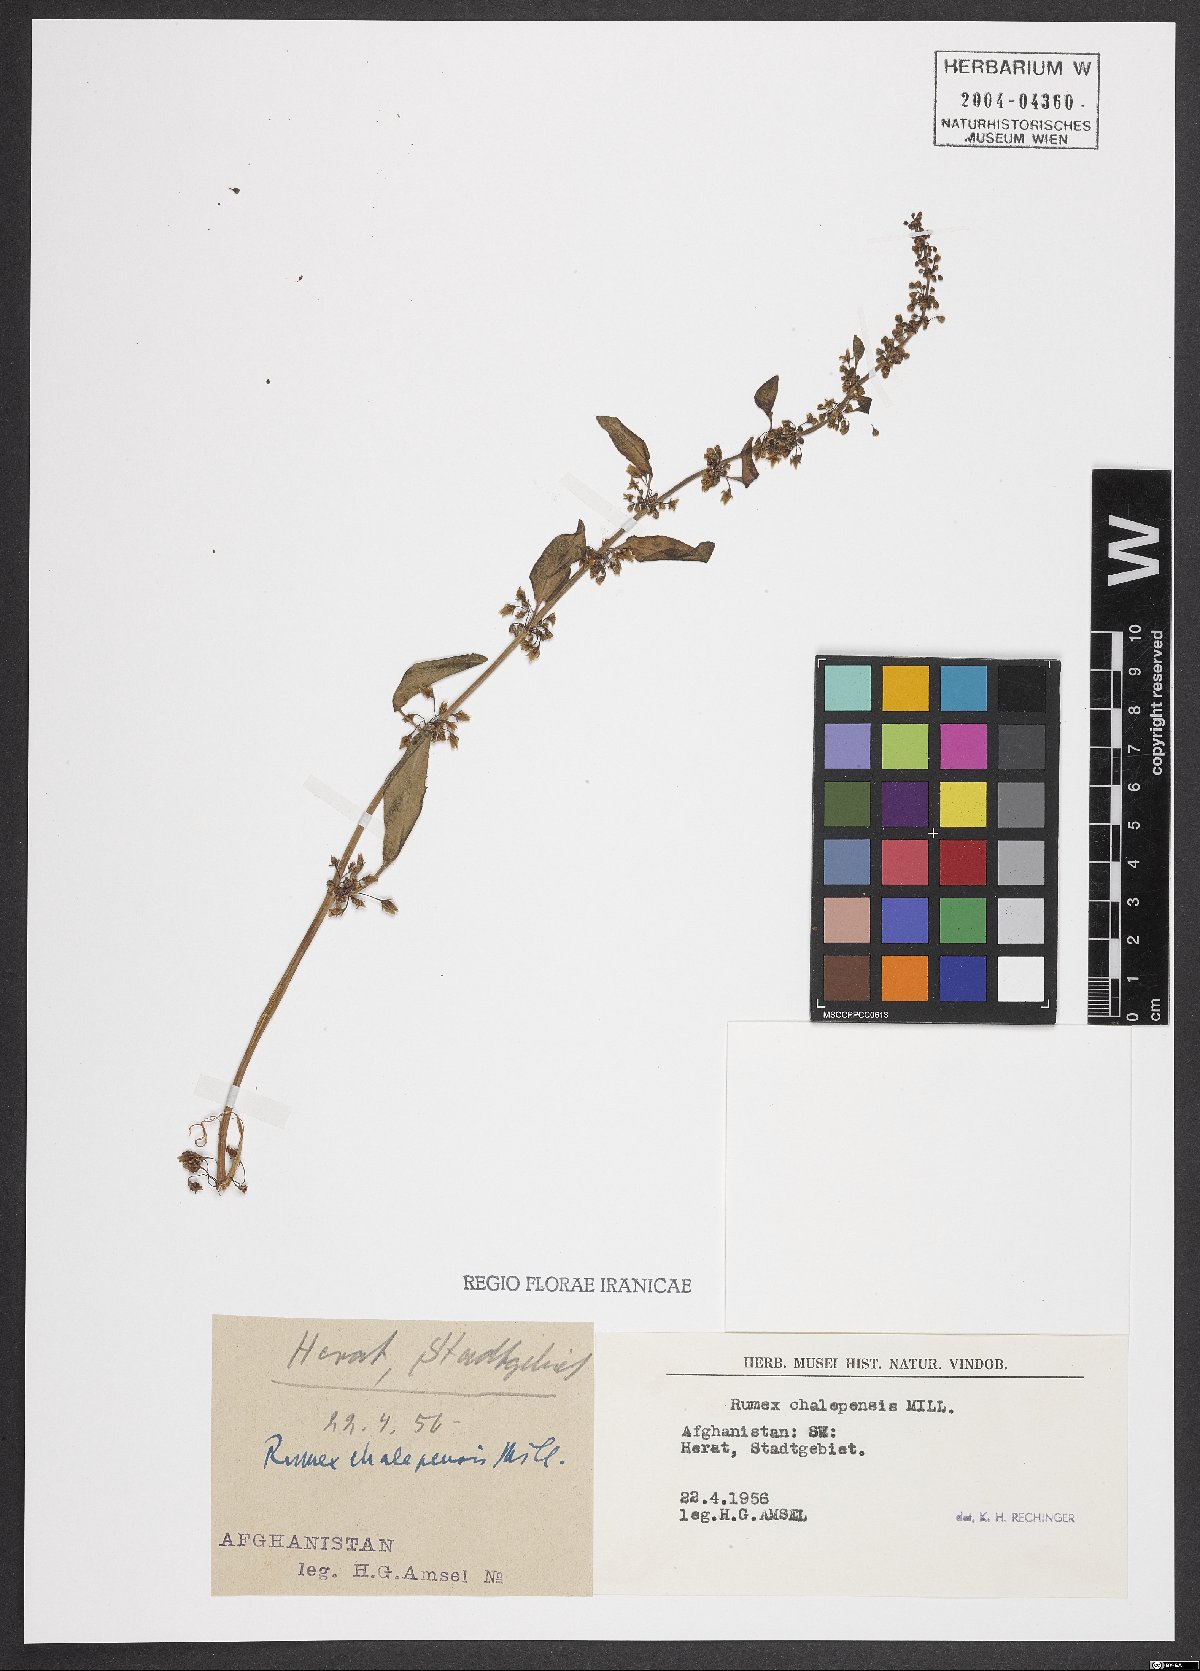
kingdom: Plantae
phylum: Tracheophyta
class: Magnoliopsida
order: Caryophyllales
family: Polygonaceae
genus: Rumex
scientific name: Rumex chalepensis
